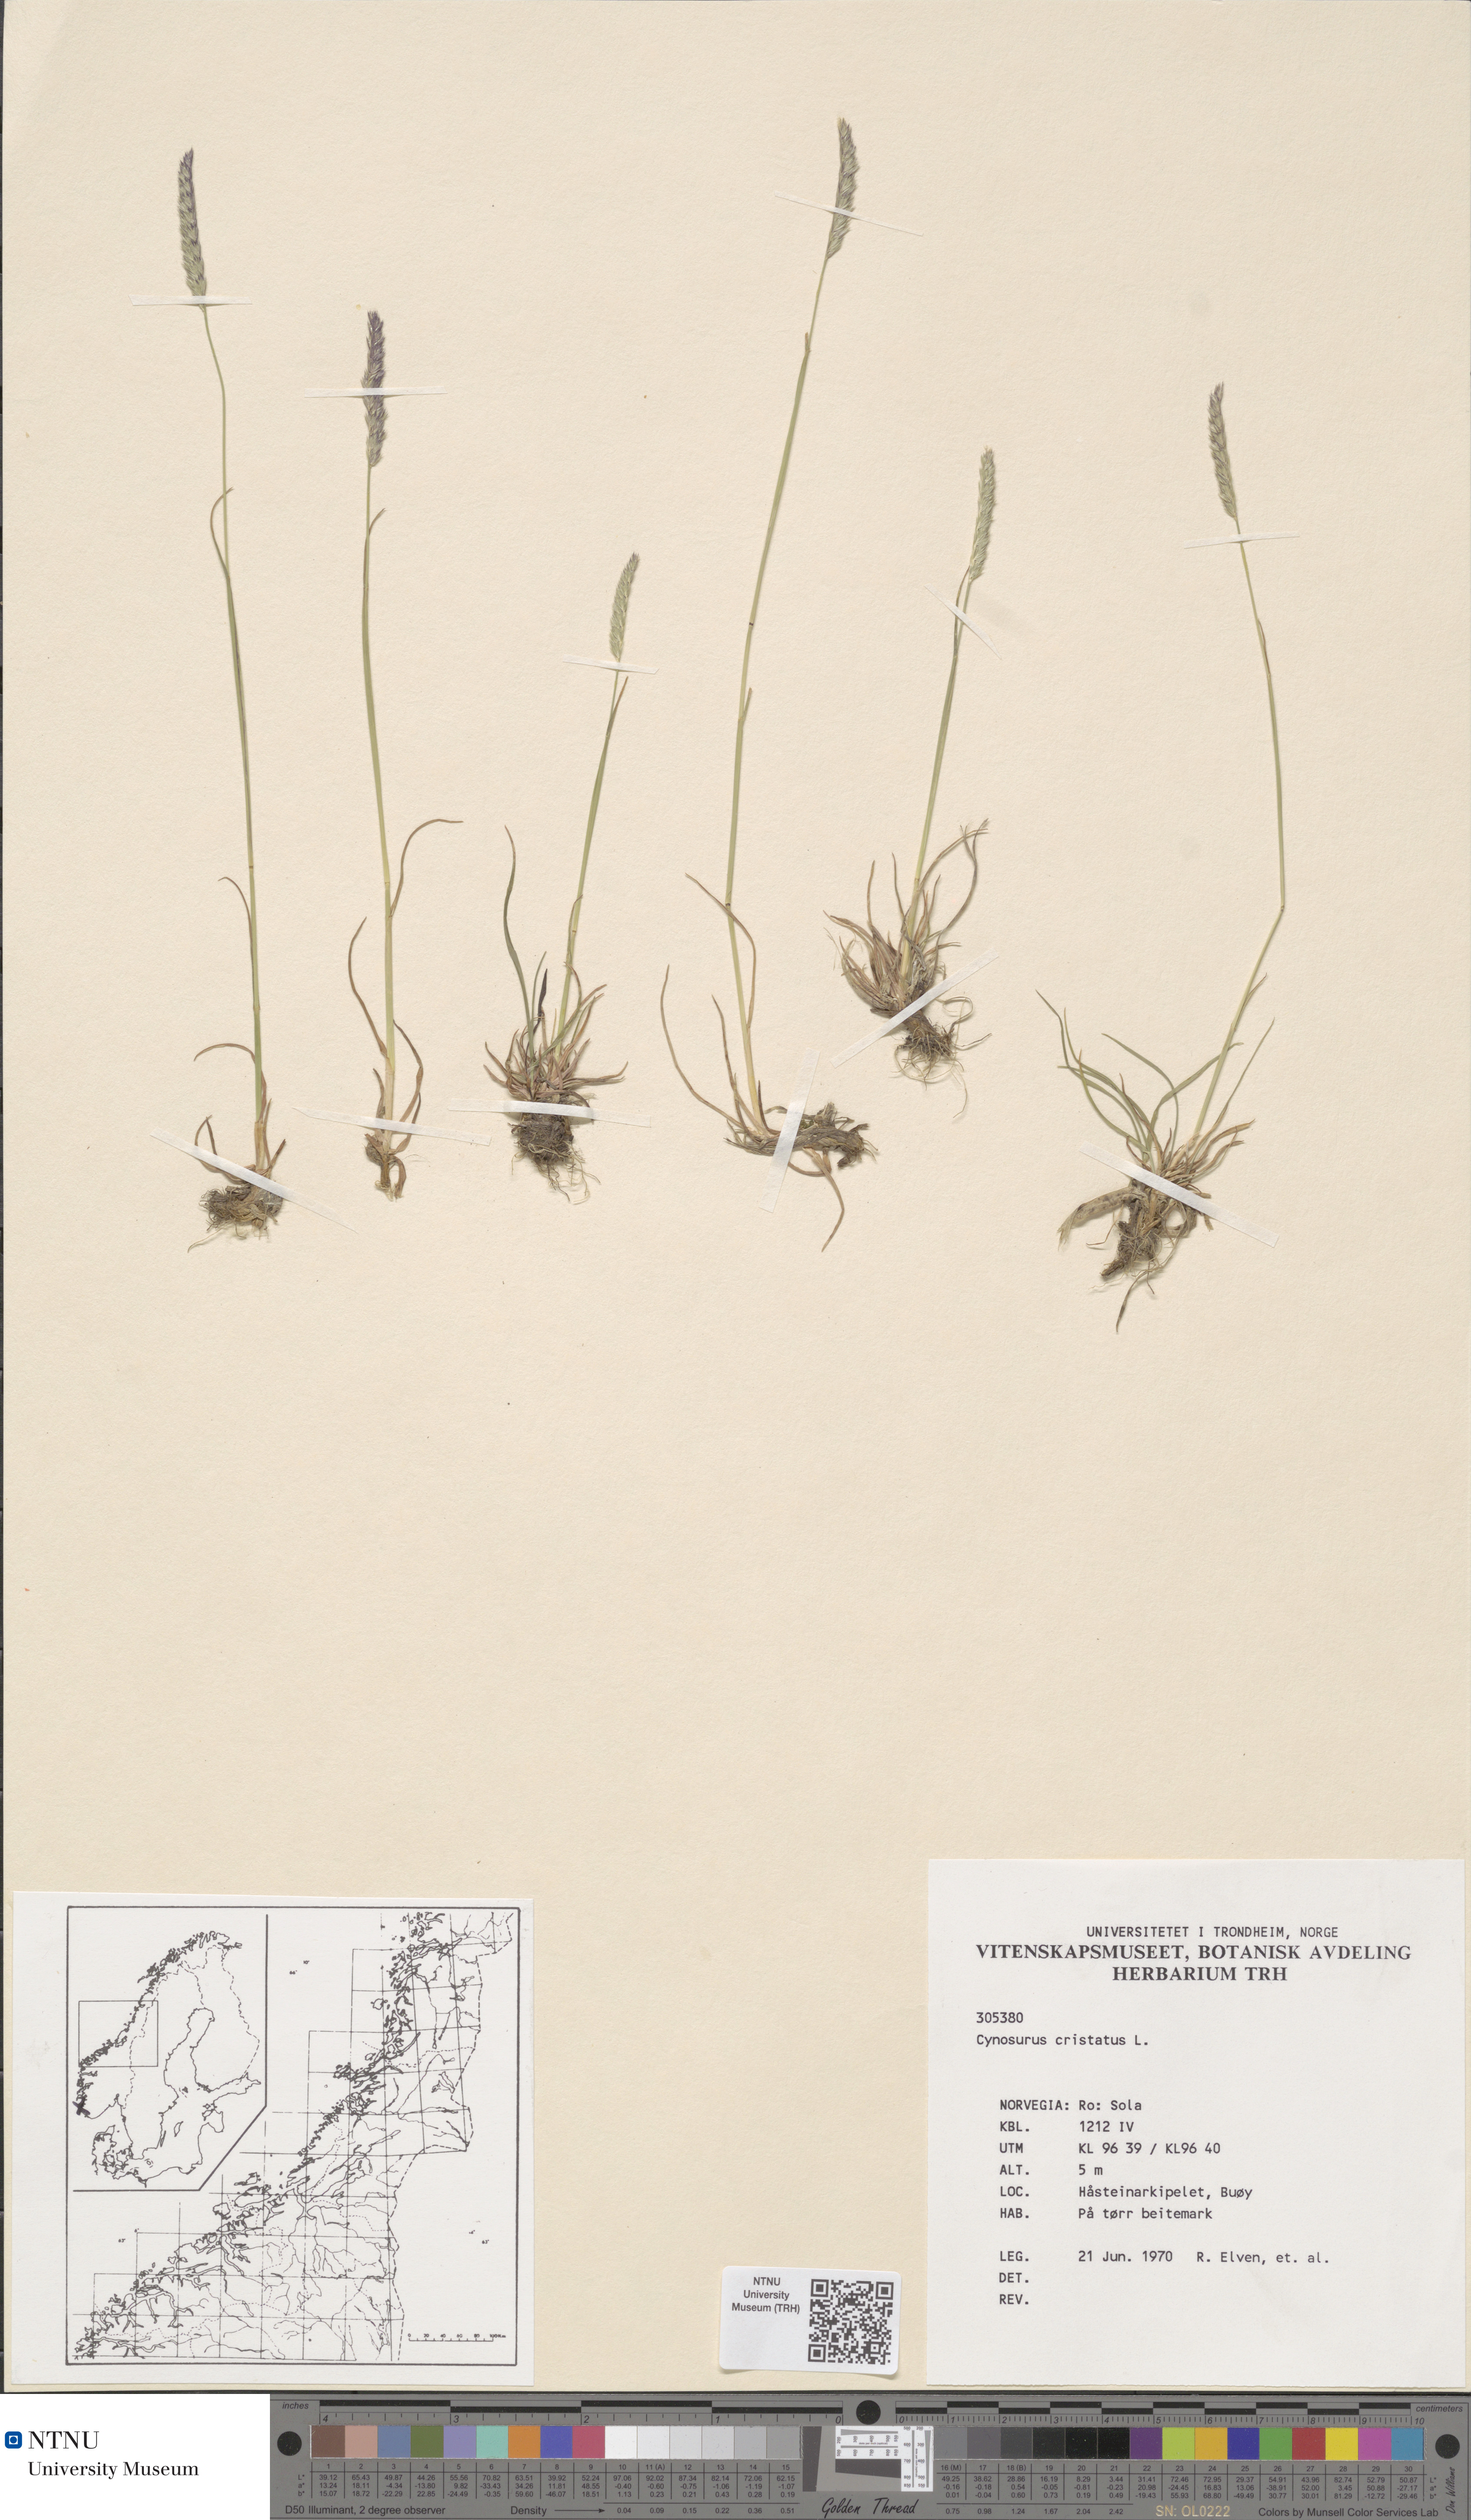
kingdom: Plantae
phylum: Tracheophyta
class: Liliopsida
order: Poales
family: Poaceae
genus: Cynosurus
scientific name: Cynosurus cristatus
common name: Crested dog's-tail
